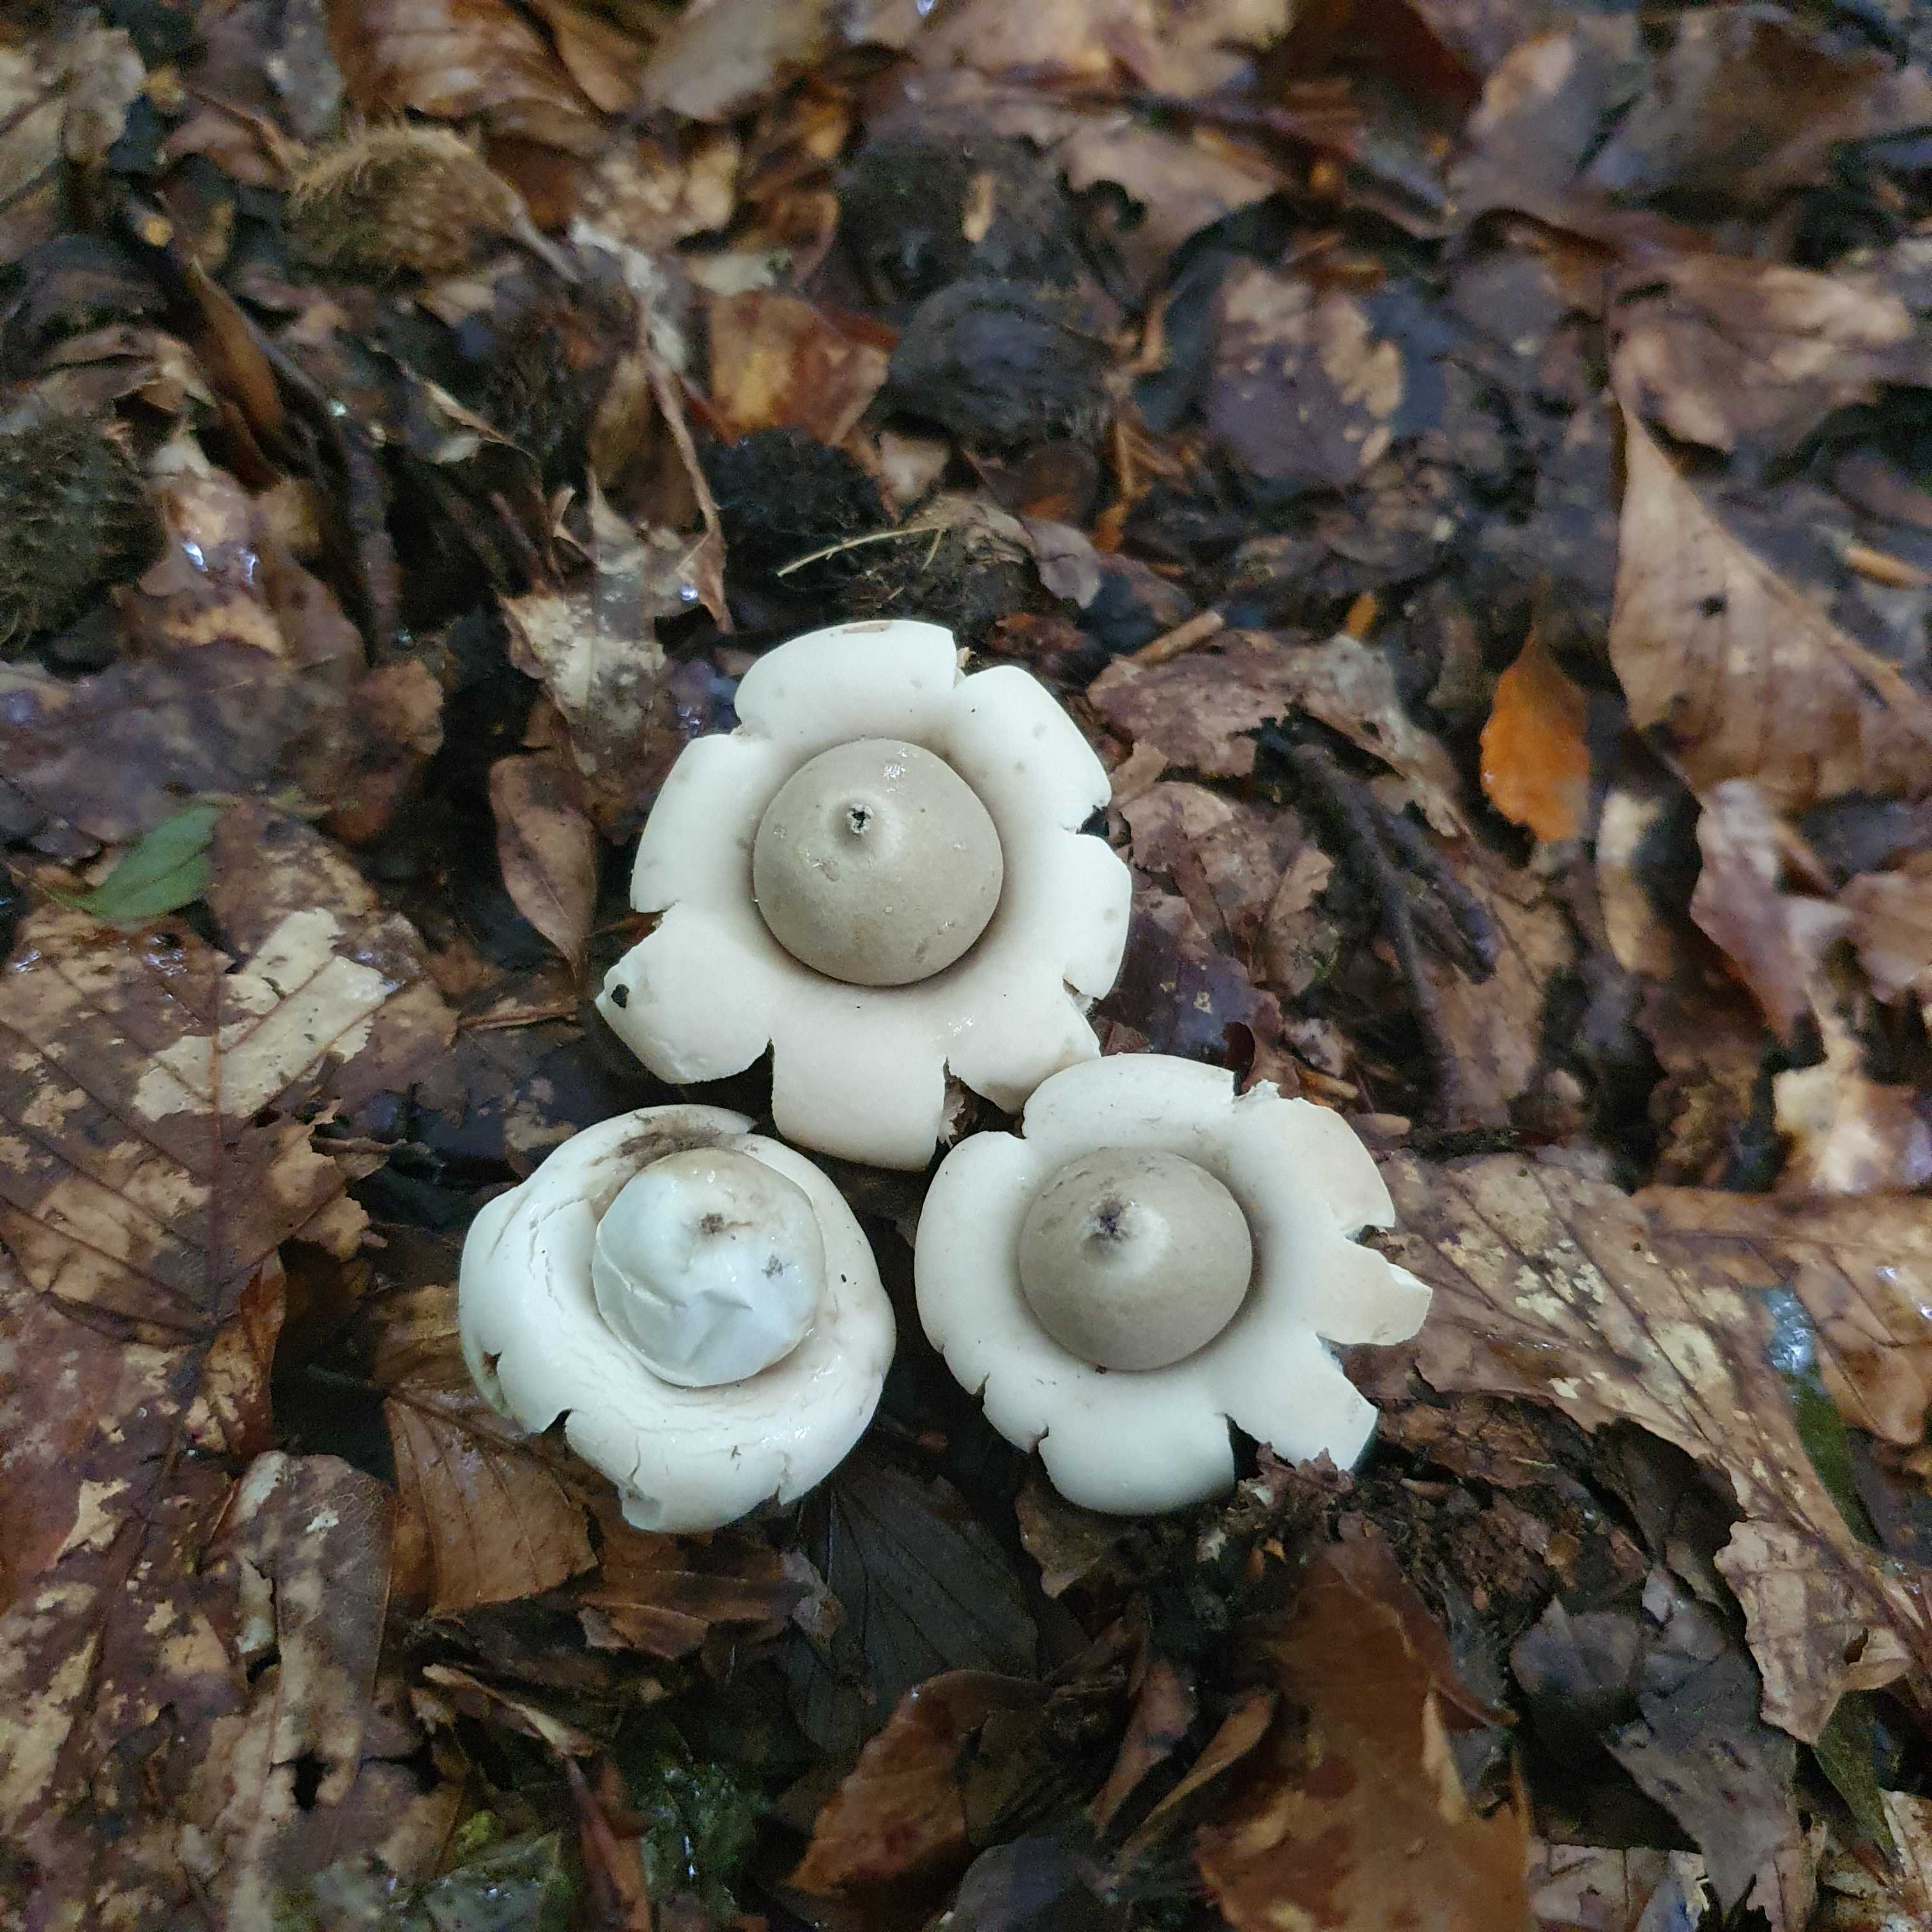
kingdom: Fungi
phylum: Basidiomycota
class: Agaricomycetes
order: Geastrales
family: Geastraceae
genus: Geastrum
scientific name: Geastrum fimbriatum
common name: frynset stjernebold
